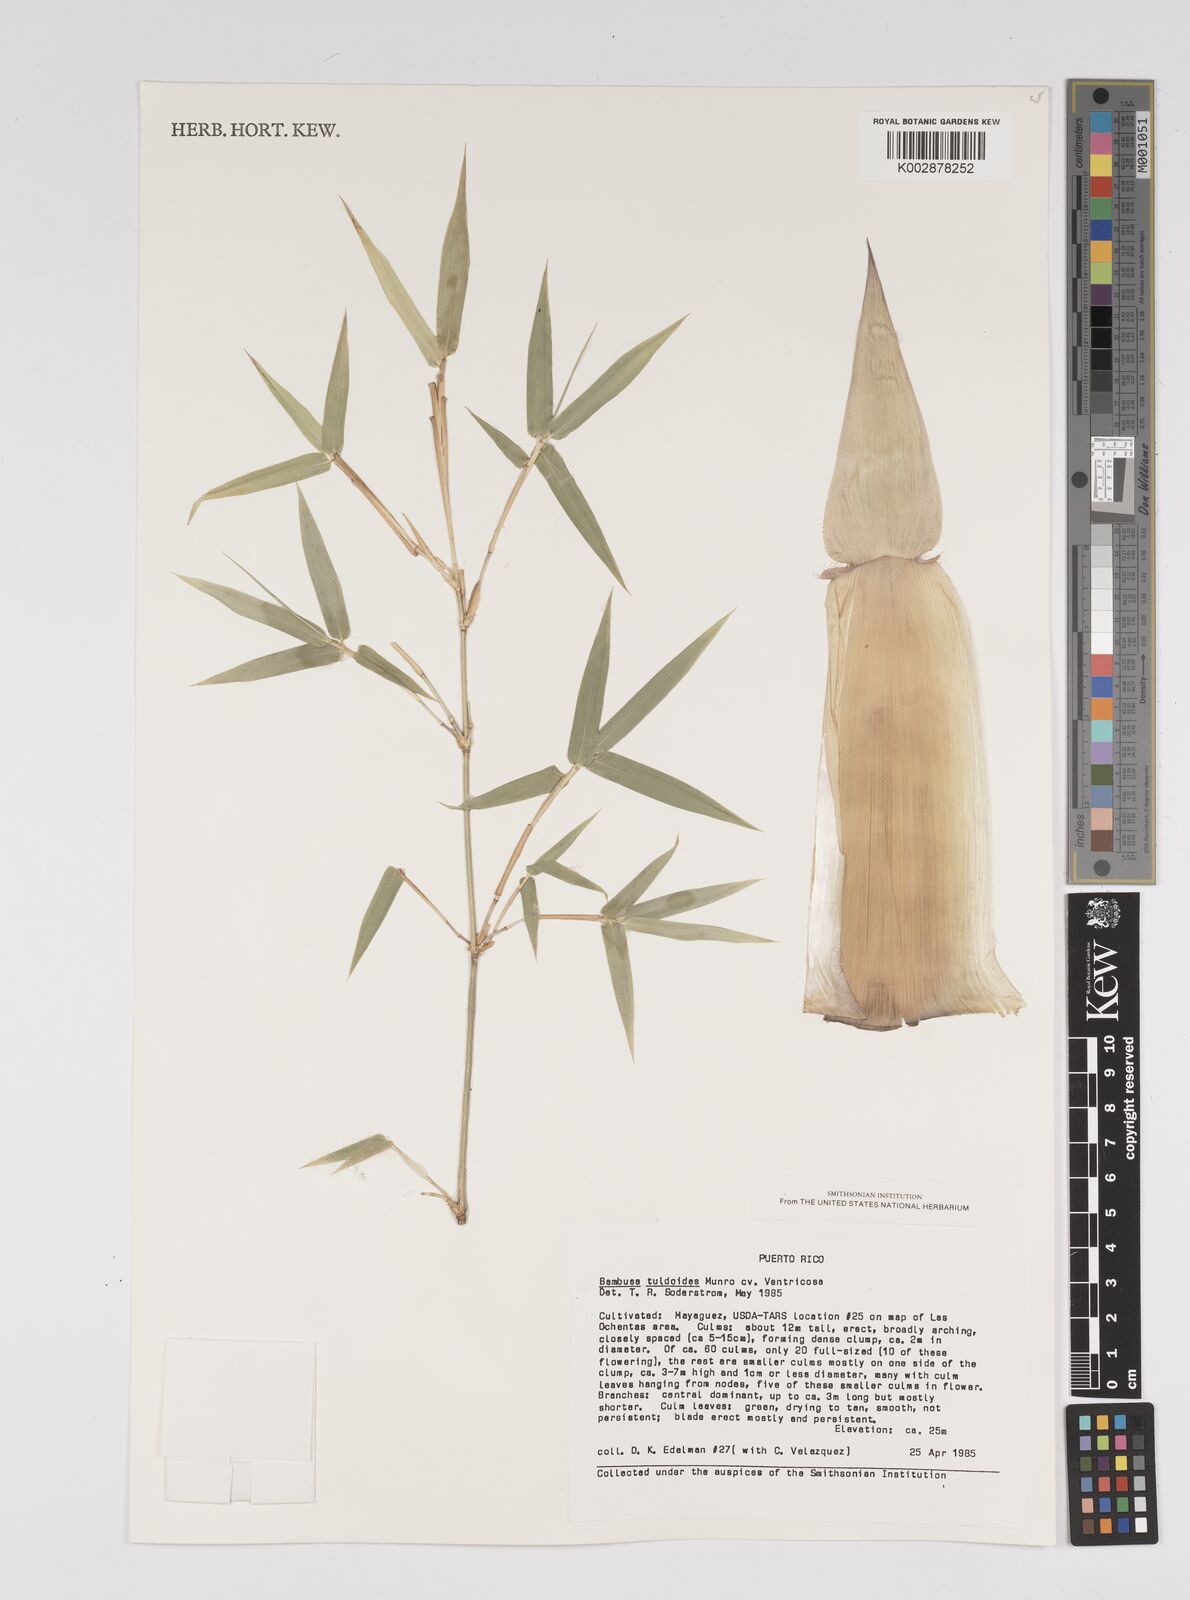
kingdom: Plantae
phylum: Tracheophyta
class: Liliopsida
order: Poales
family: Poaceae
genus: Bambusa
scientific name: Bambusa tuldoides
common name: Verdant bamboo
